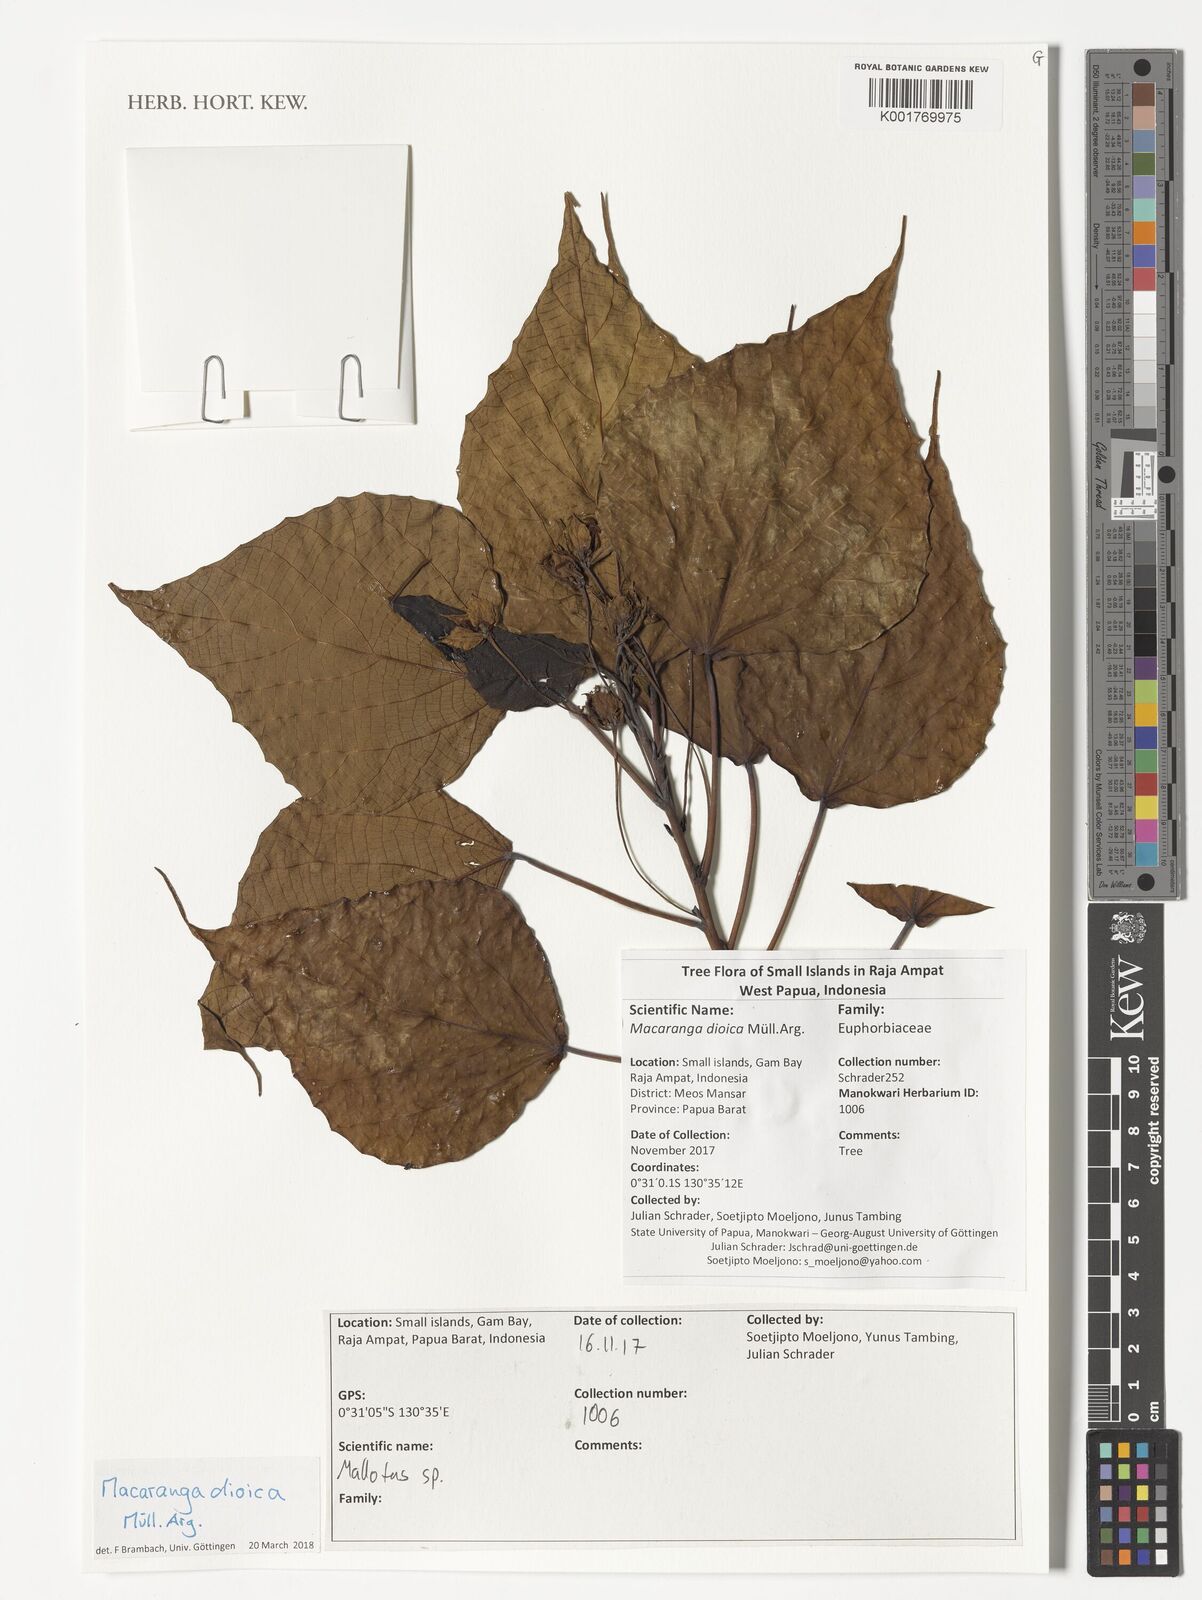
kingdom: Plantae
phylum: Tracheophyta
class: Magnoliopsida
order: Malpighiales
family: Euphorbiaceae
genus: Macaranga
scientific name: Macaranga dioica
